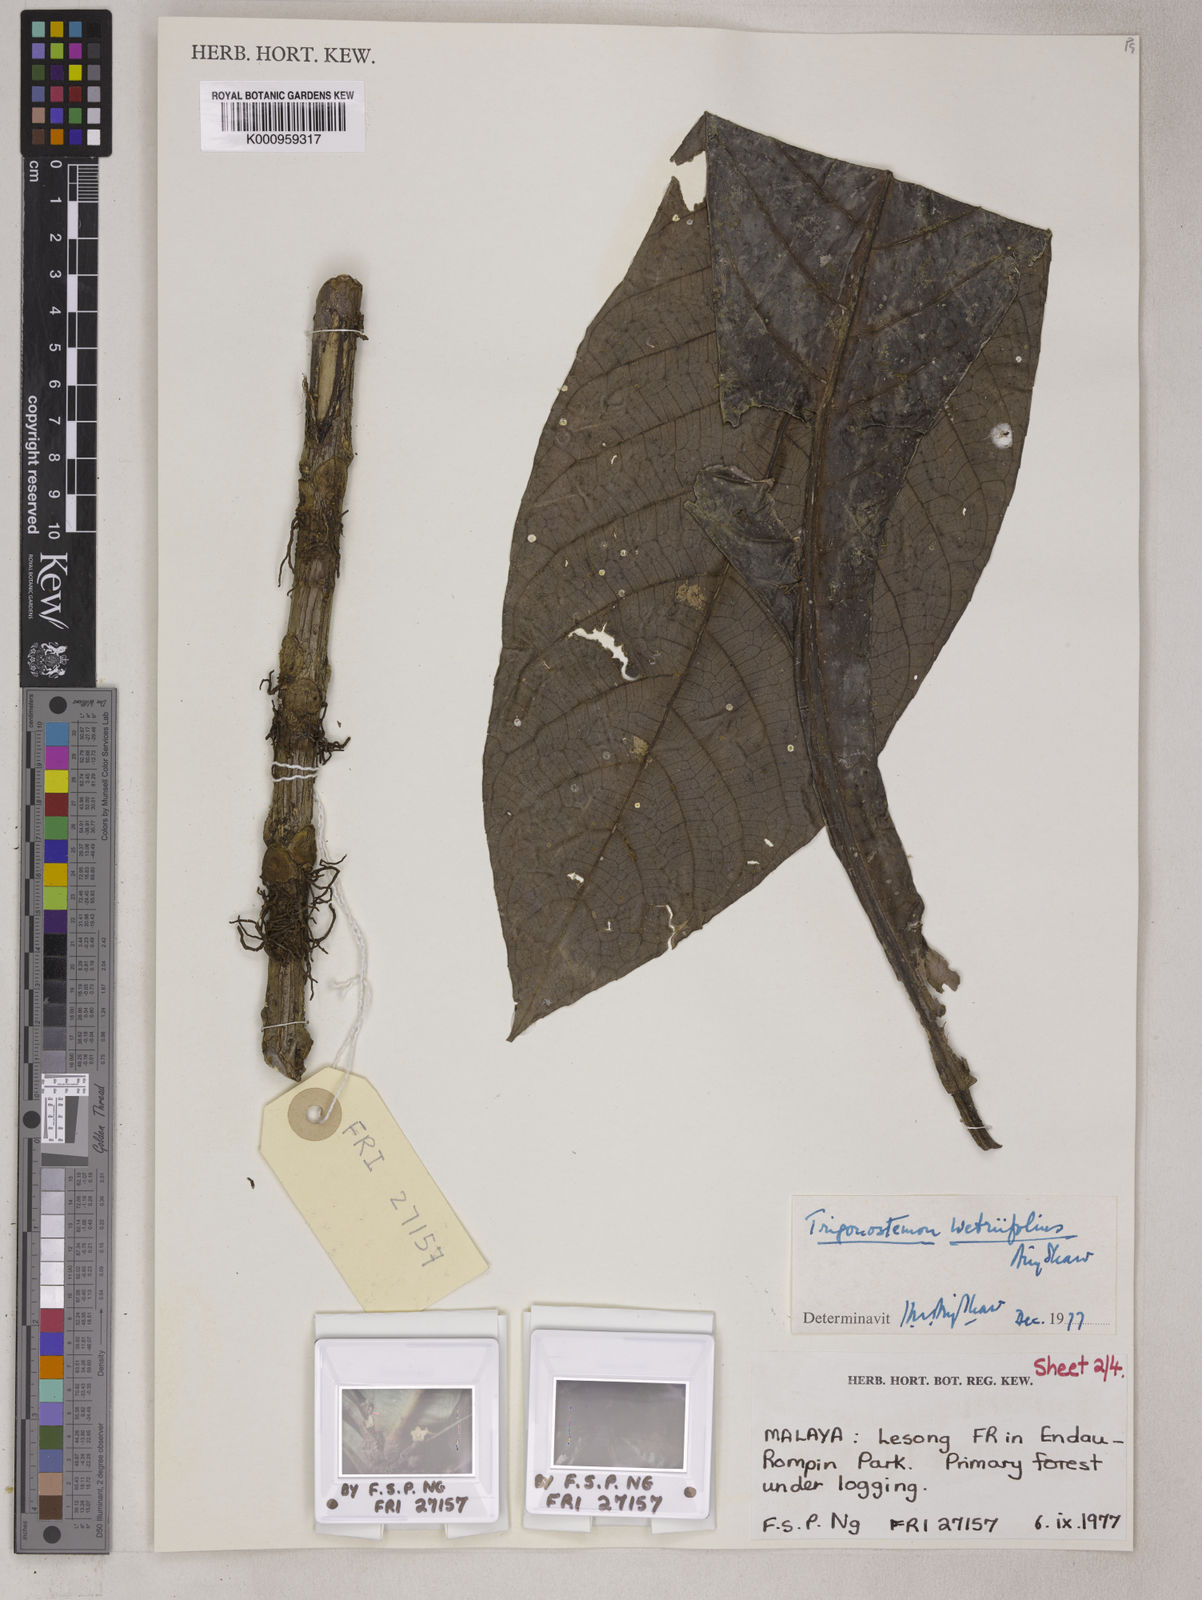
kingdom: Plantae
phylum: Tracheophyta
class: Magnoliopsida
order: Malpighiales
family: Euphorbiaceae
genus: Trigonostemon
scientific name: Trigonostemon wetriifolius
